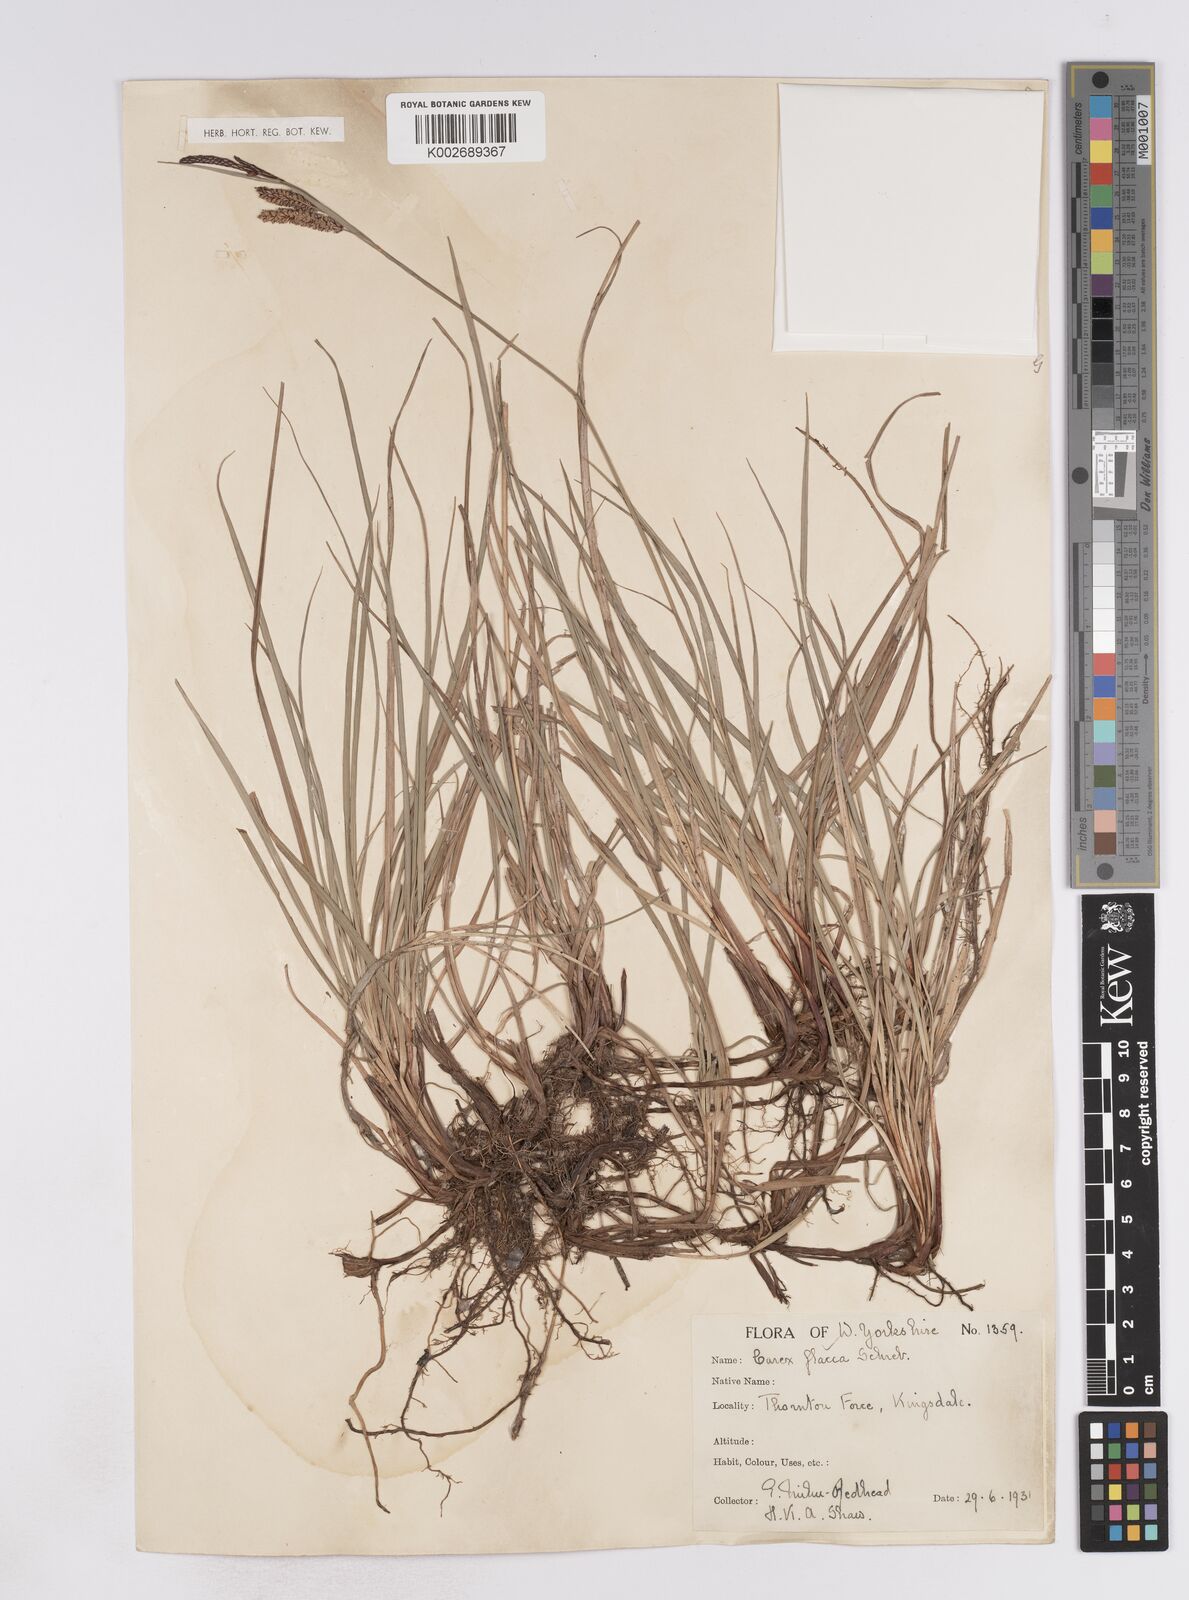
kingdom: Plantae
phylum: Tracheophyta
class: Liliopsida
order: Poales
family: Cyperaceae
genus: Carex
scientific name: Carex flacca
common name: Glaucous sedge
